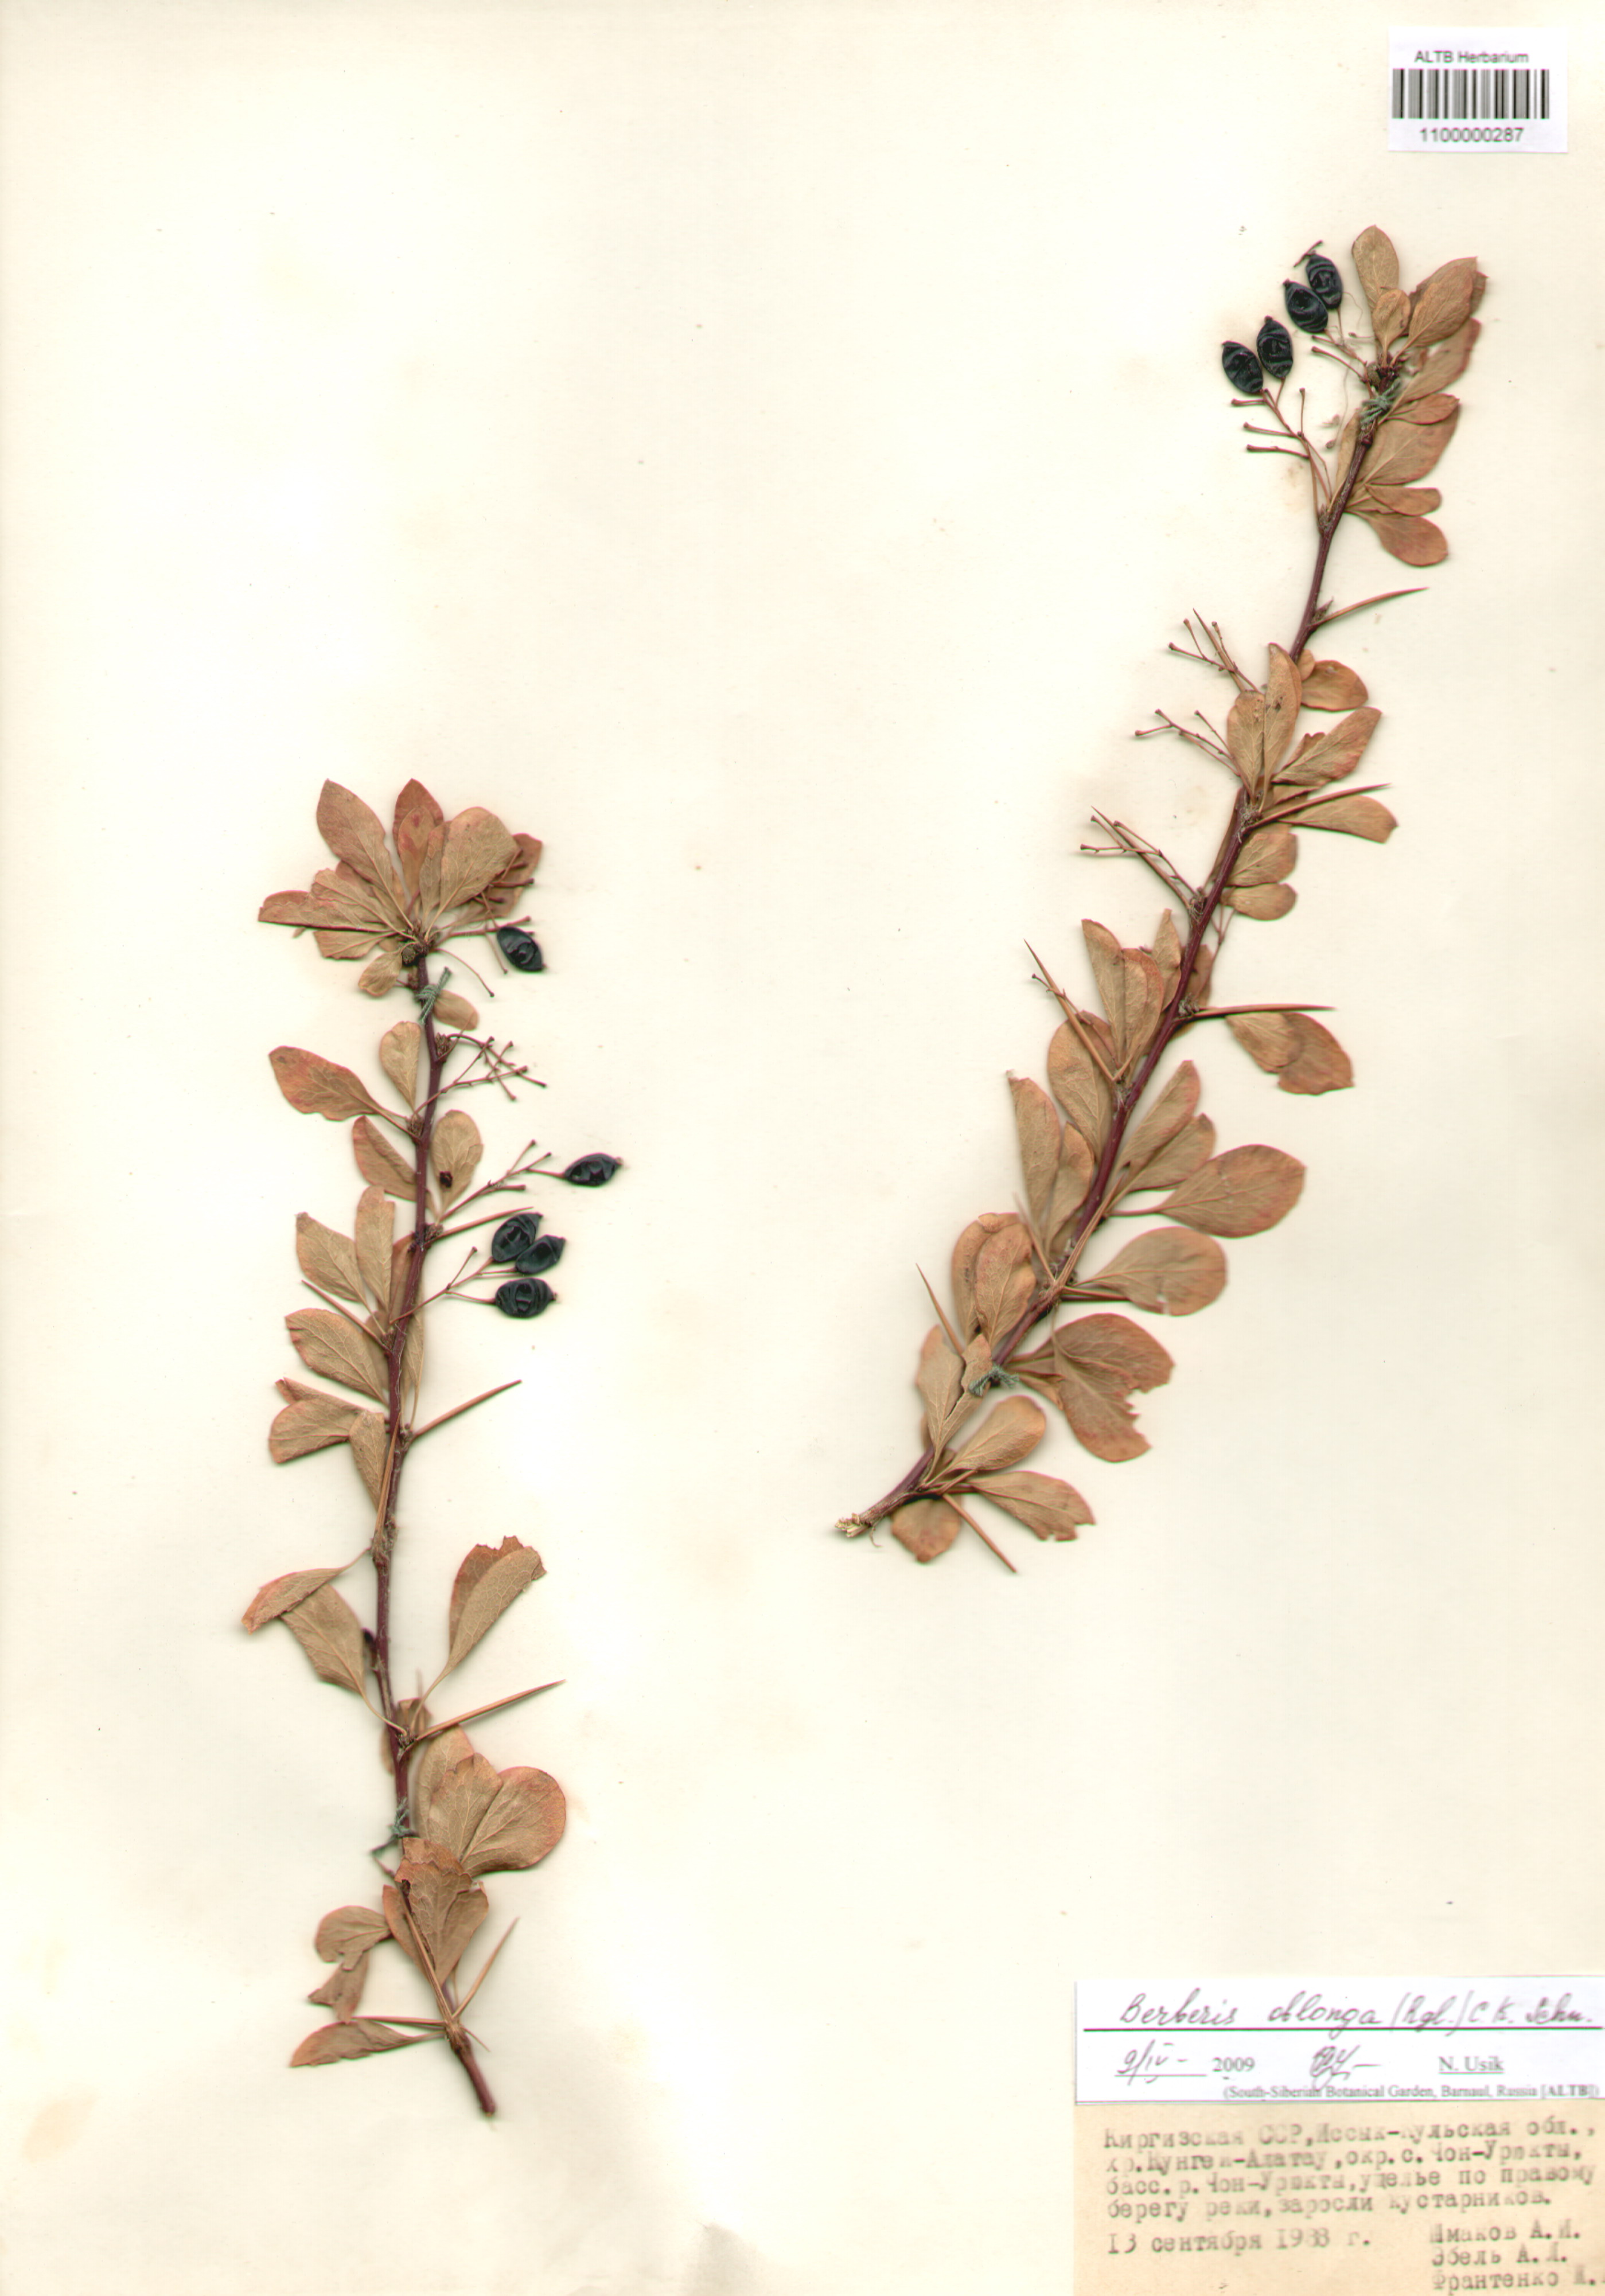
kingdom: Plantae
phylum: Tracheophyta
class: Magnoliopsida
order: Ranunculales
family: Berberidaceae
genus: Berberis
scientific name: Berberis oblonga
